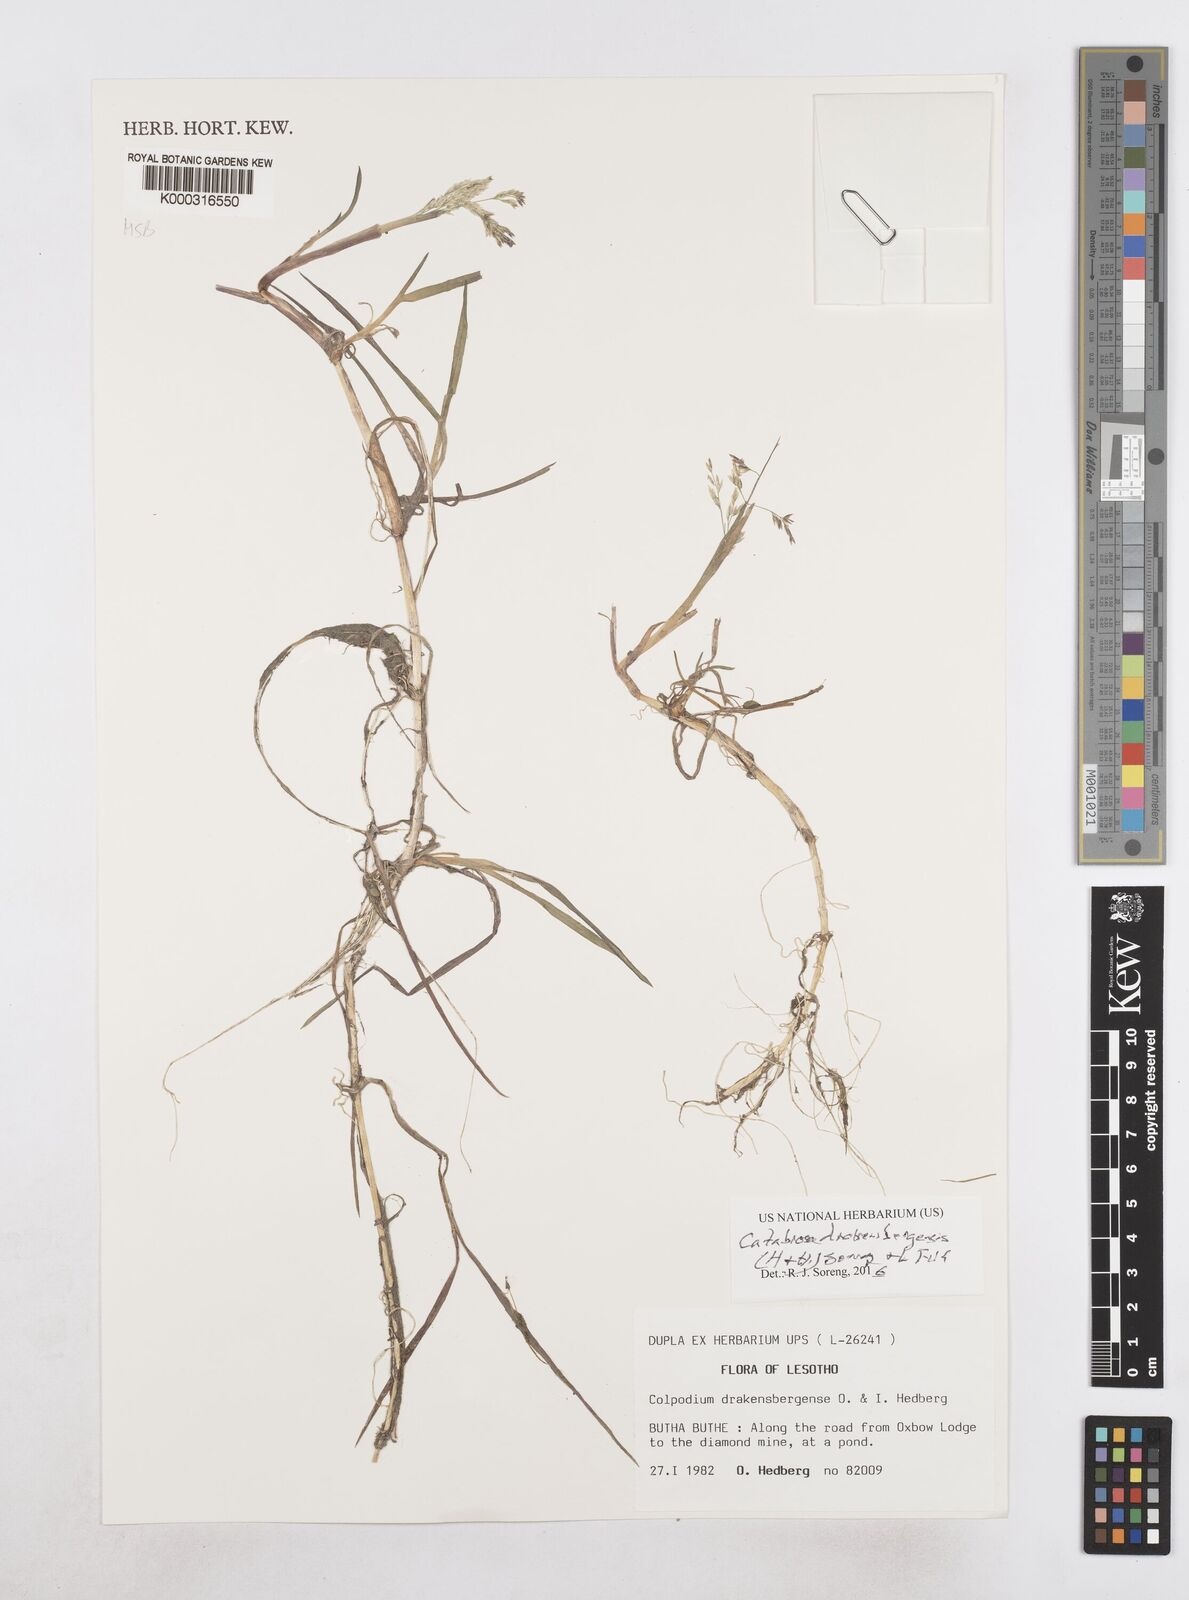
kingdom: Plantae
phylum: Tracheophyta
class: Liliopsida
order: Poales
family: Poaceae
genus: Catabrosa
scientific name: Catabrosa drakensbergensis
